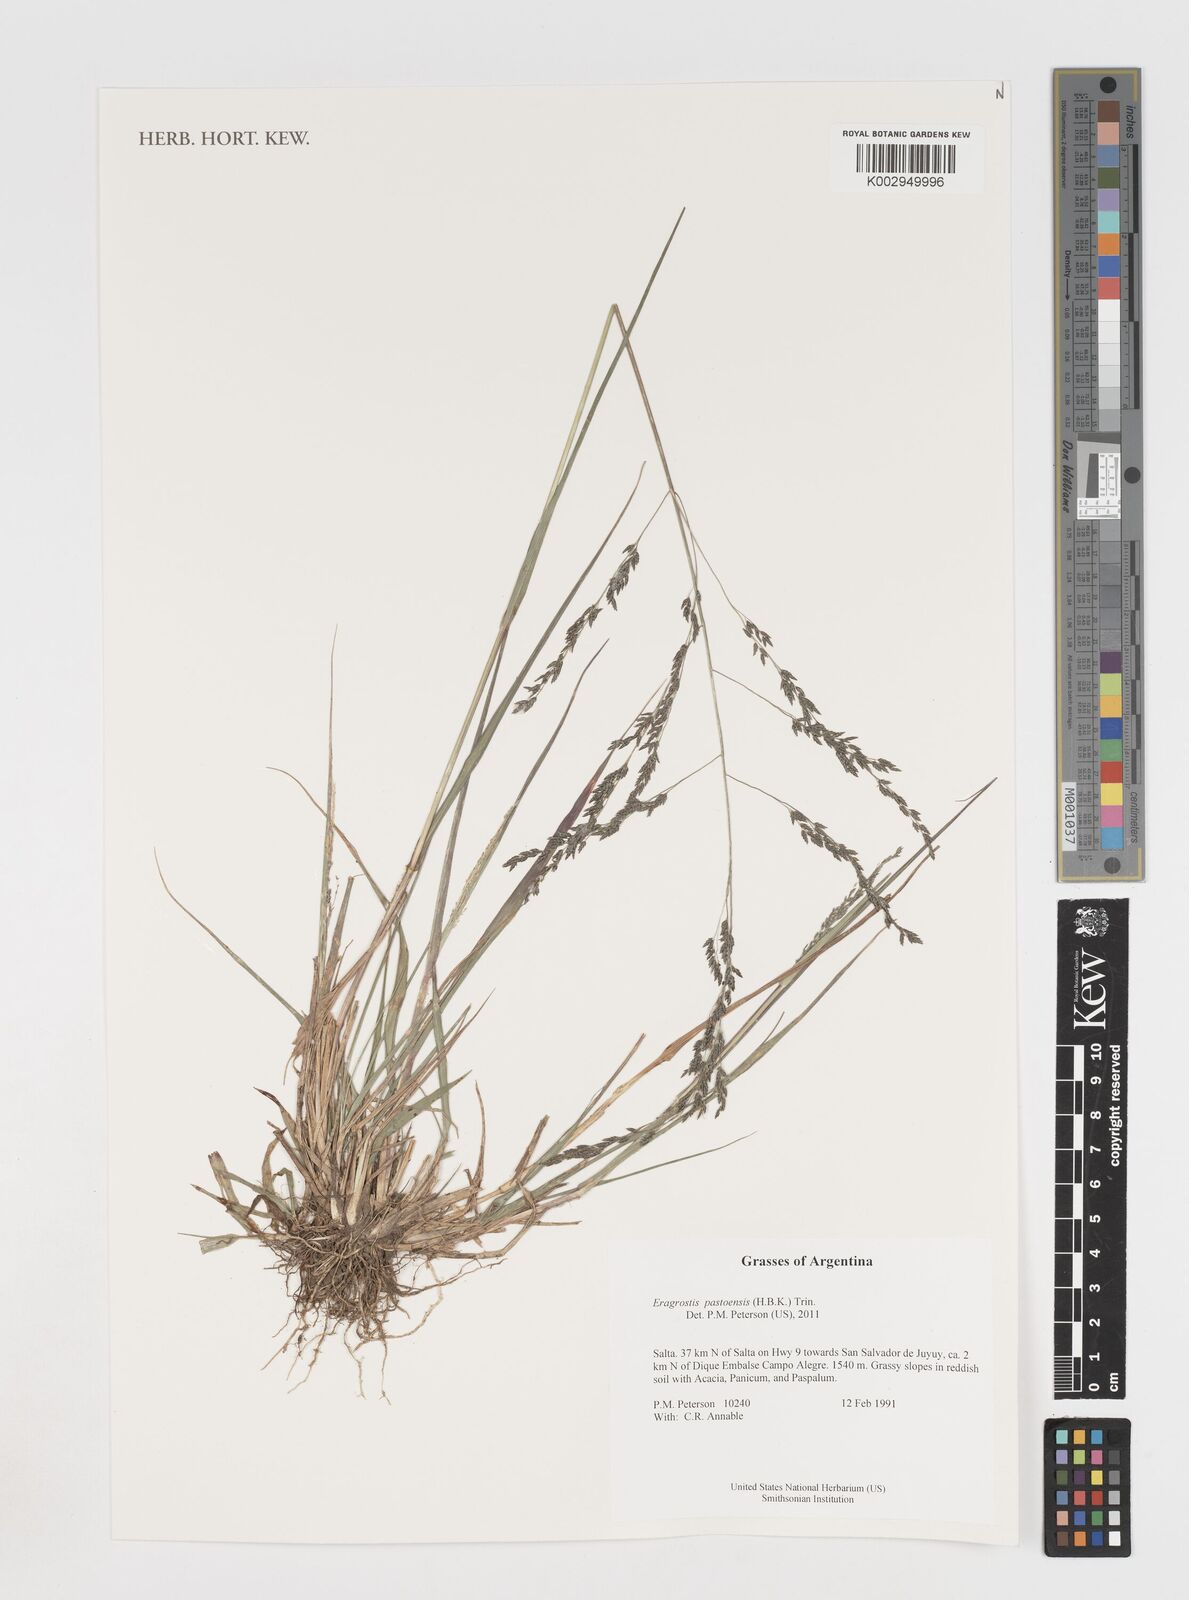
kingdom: Plantae
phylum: Tracheophyta
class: Liliopsida
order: Poales
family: Poaceae
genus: Eragrostis
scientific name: Eragrostis pastoensis
